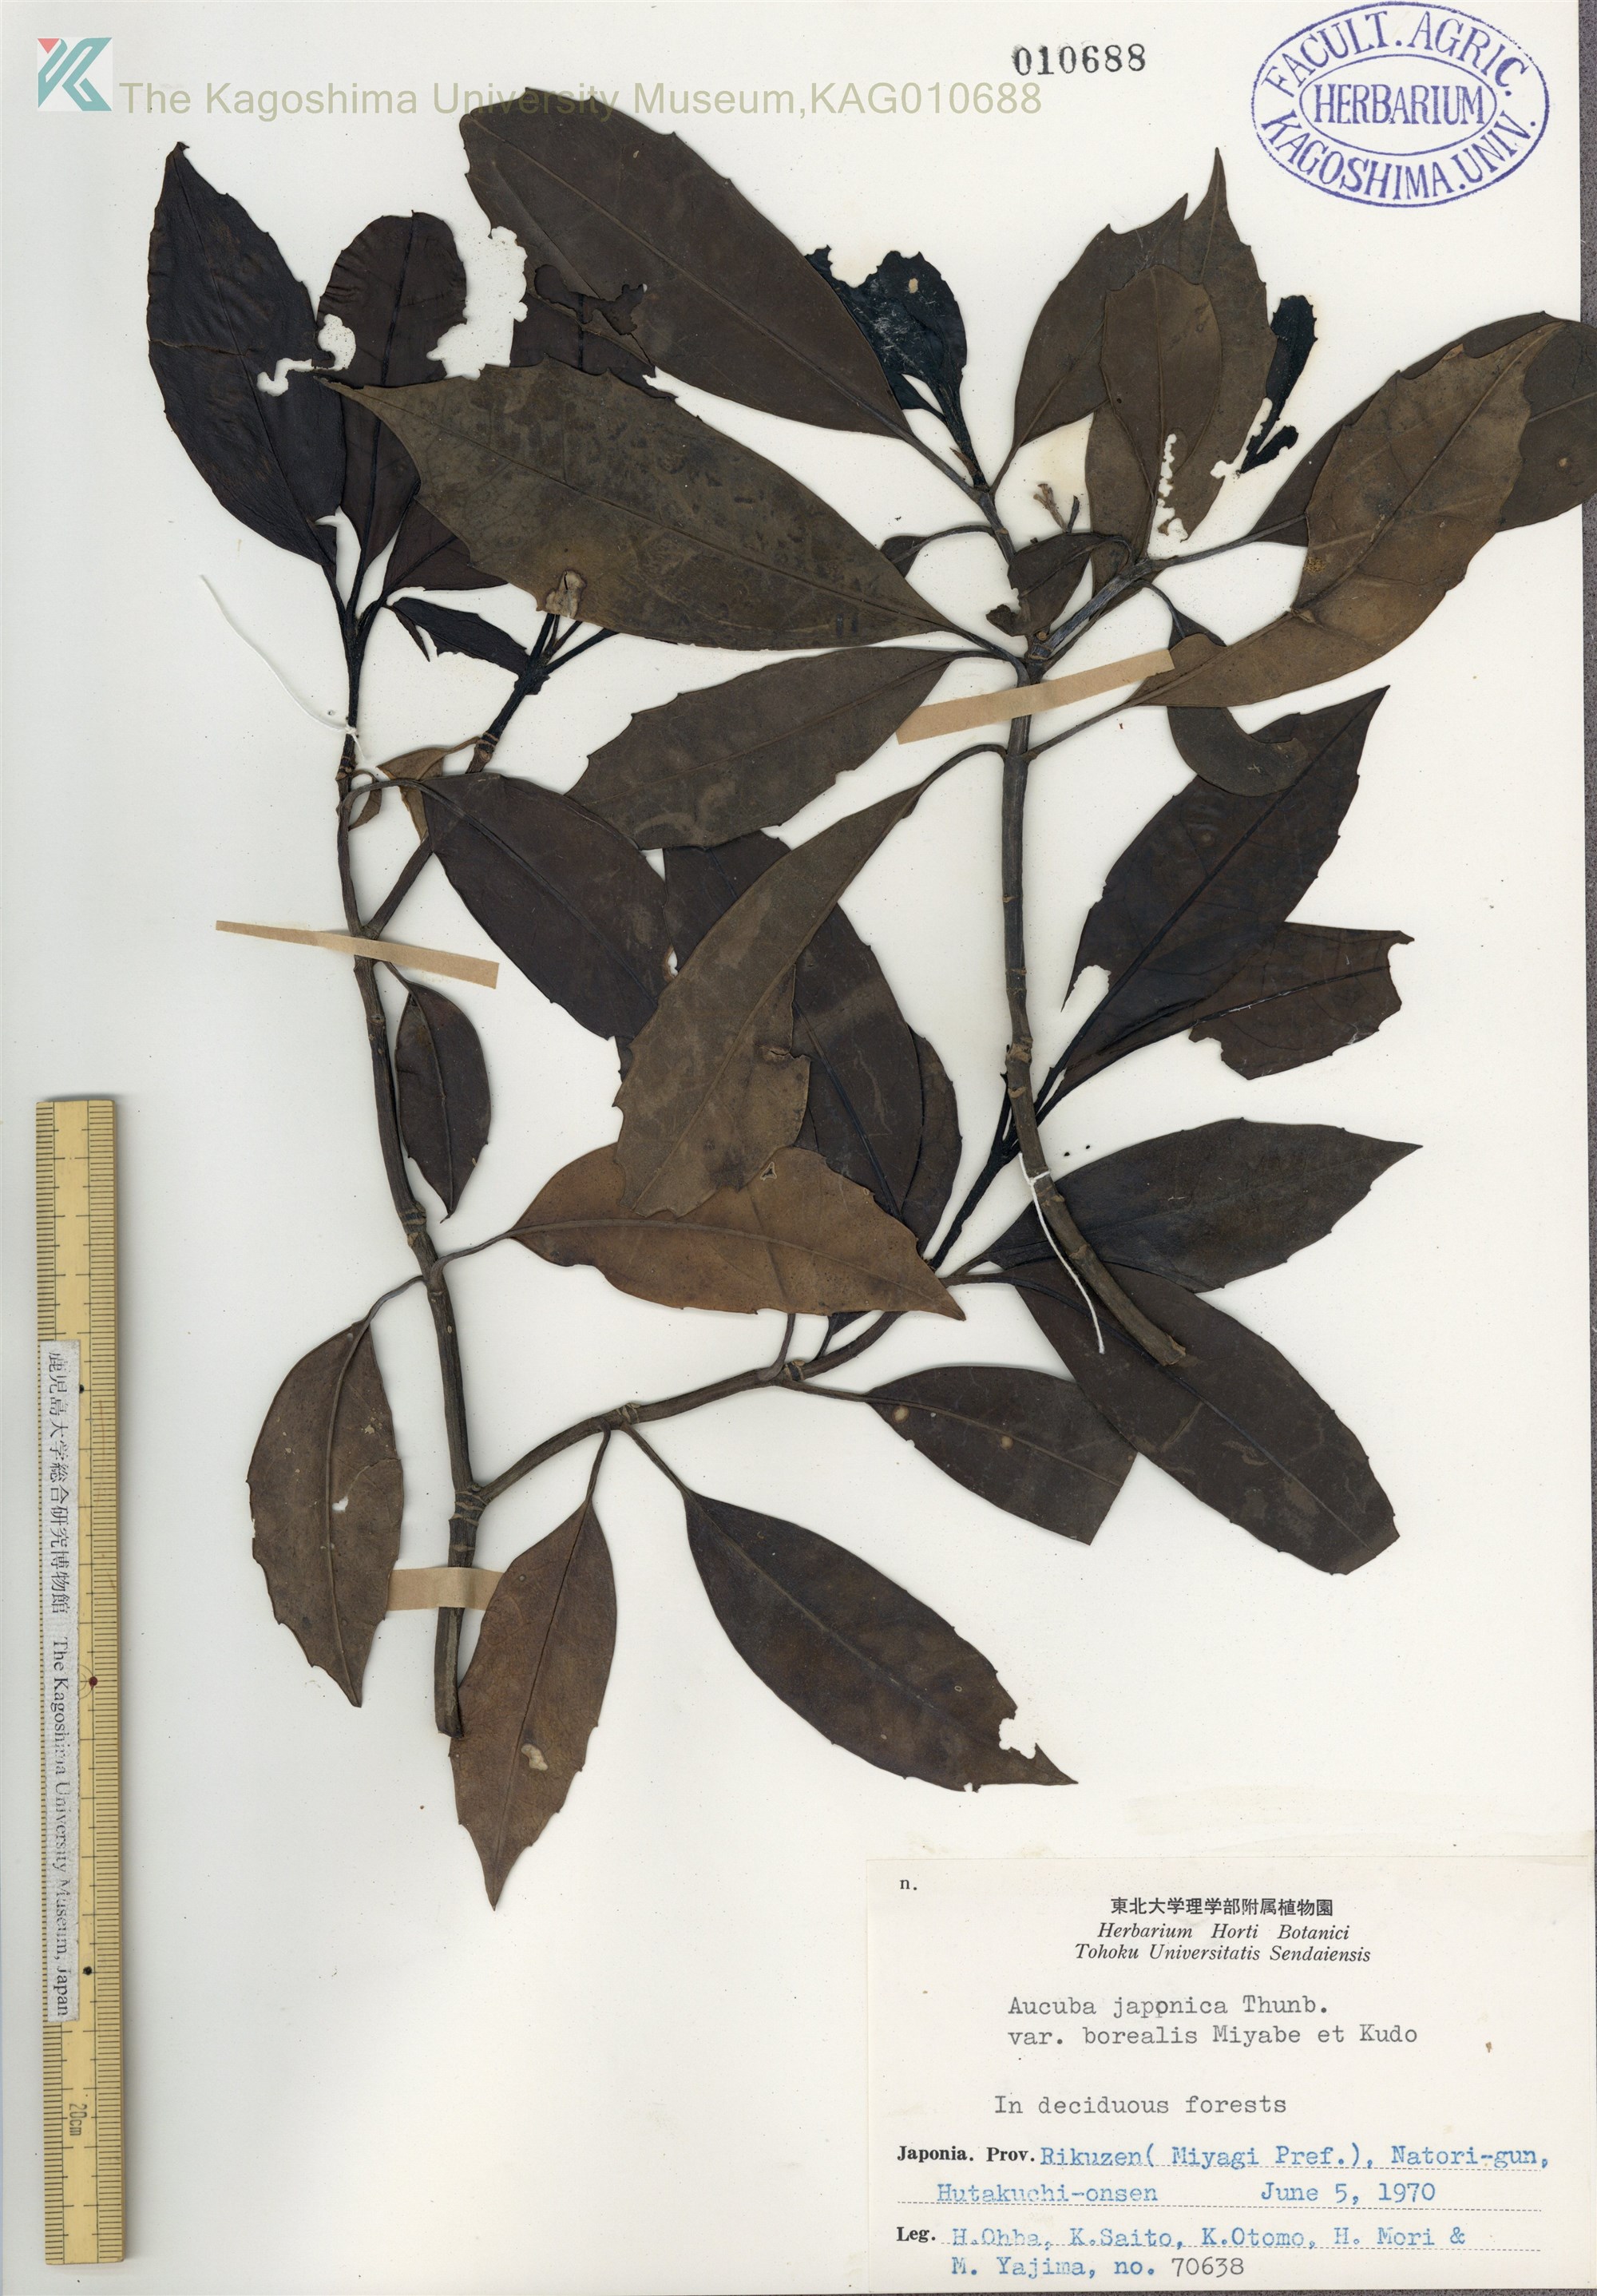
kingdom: Plantae
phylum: Tracheophyta
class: Magnoliopsida
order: Garryales
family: Garryaceae
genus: Aucuba
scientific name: Aucuba japonica
